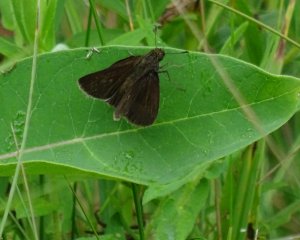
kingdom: Animalia
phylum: Arthropoda
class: Insecta
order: Lepidoptera
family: Hesperiidae
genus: Euphyes
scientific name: Euphyes vestris
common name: Dun Skipper
